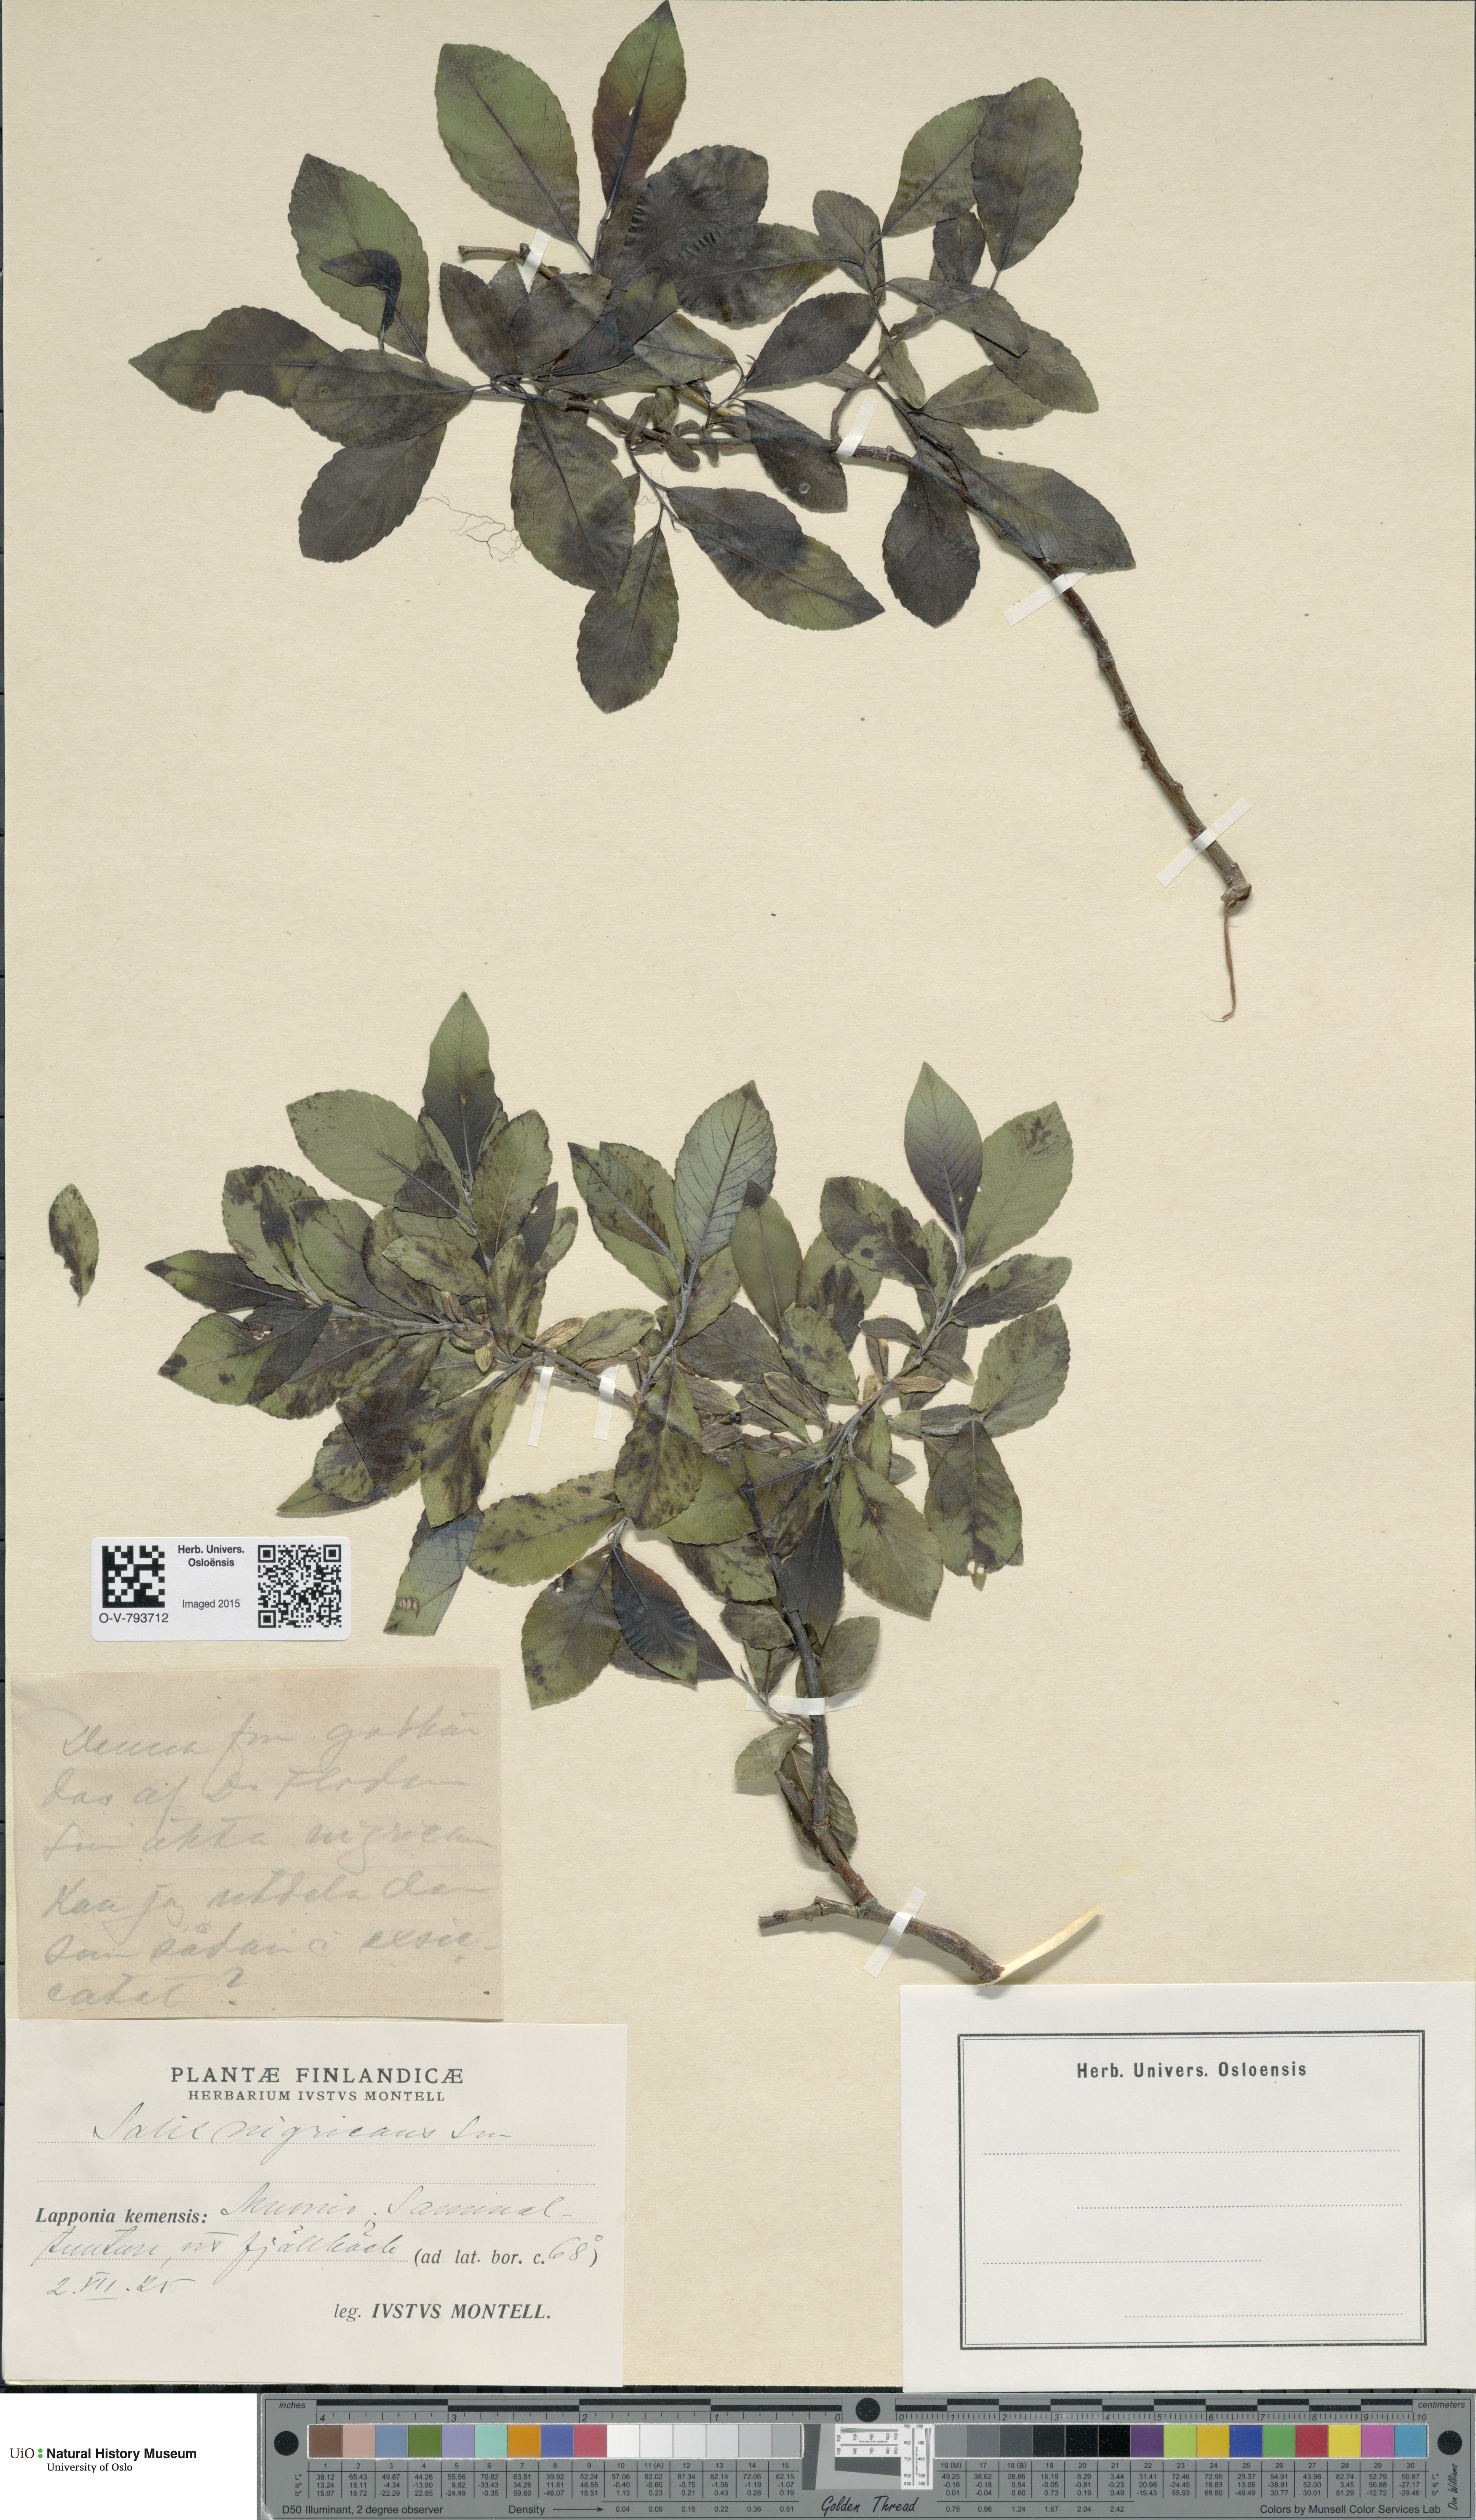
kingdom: Plantae
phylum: Tracheophyta
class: Magnoliopsida
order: Malpighiales
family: Salicaceae
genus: Salix
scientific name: Salix myrsinifolia
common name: Dark-leaved willow
